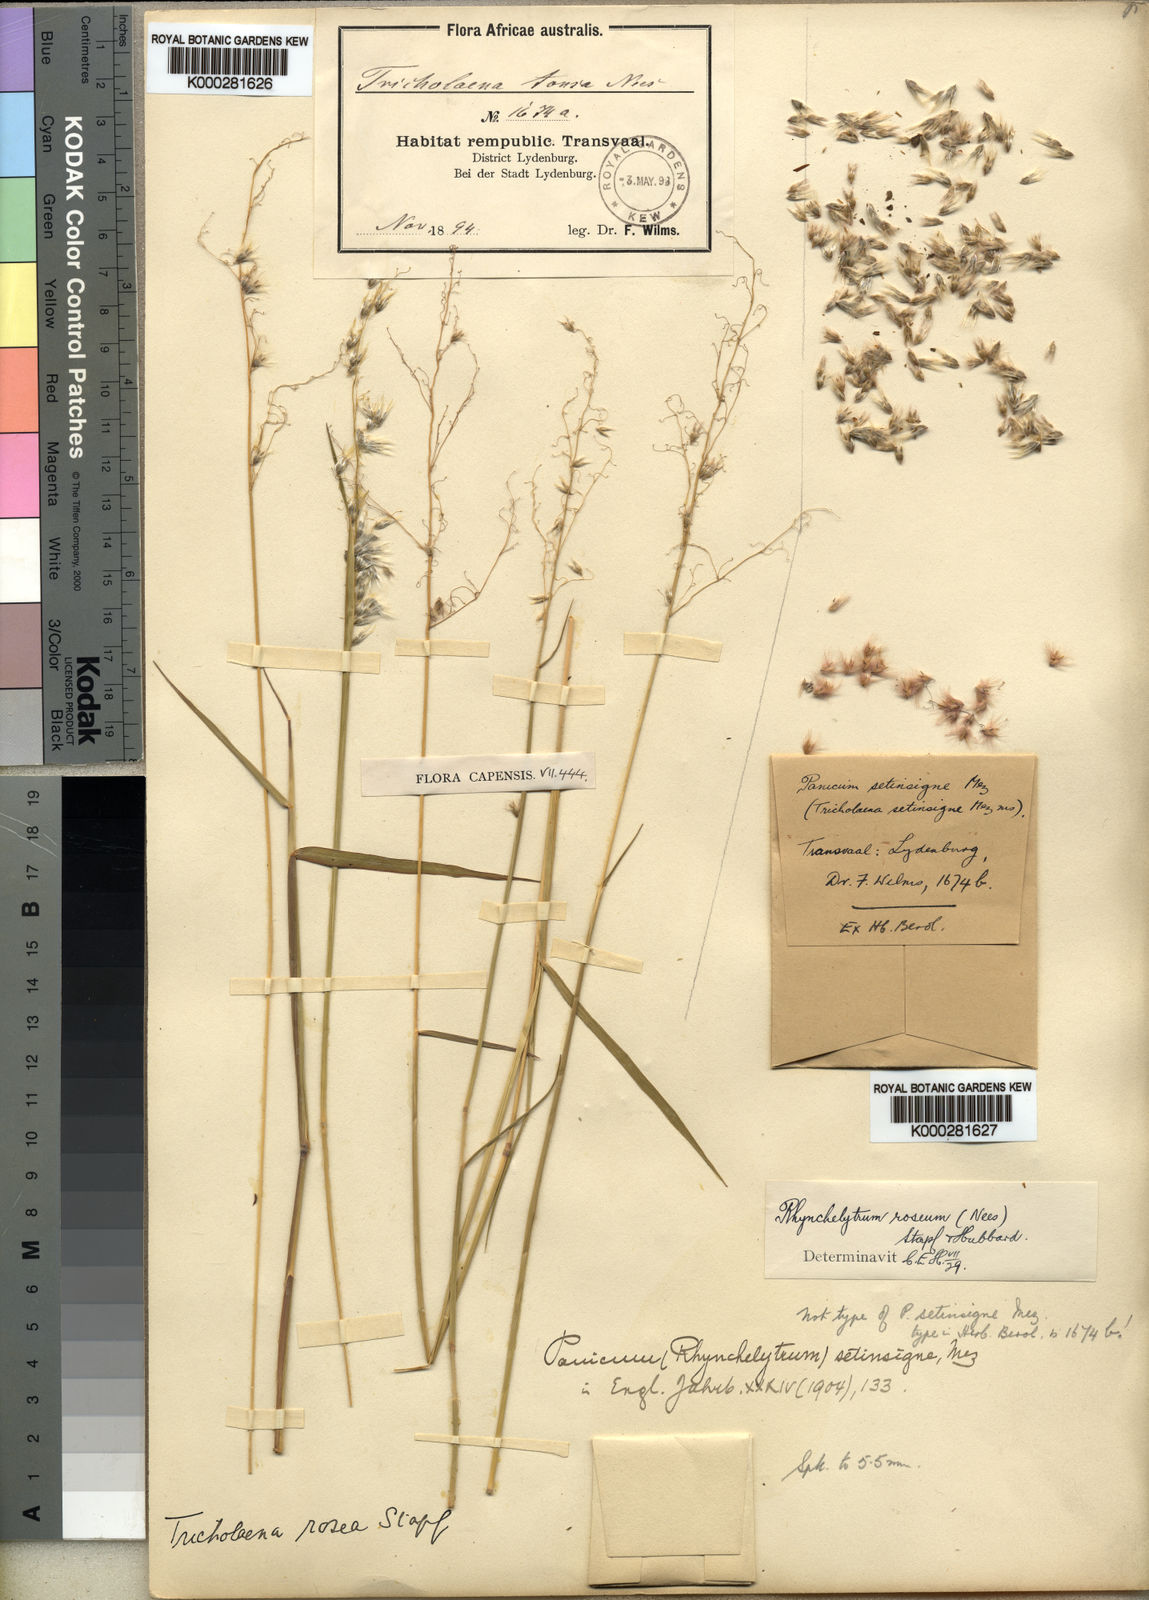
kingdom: Plantae
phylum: Tracheophyta
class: Liliopsida
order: Poales
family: Poaceae
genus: Melinis
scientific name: Melinis repens
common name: Rose natal grass
